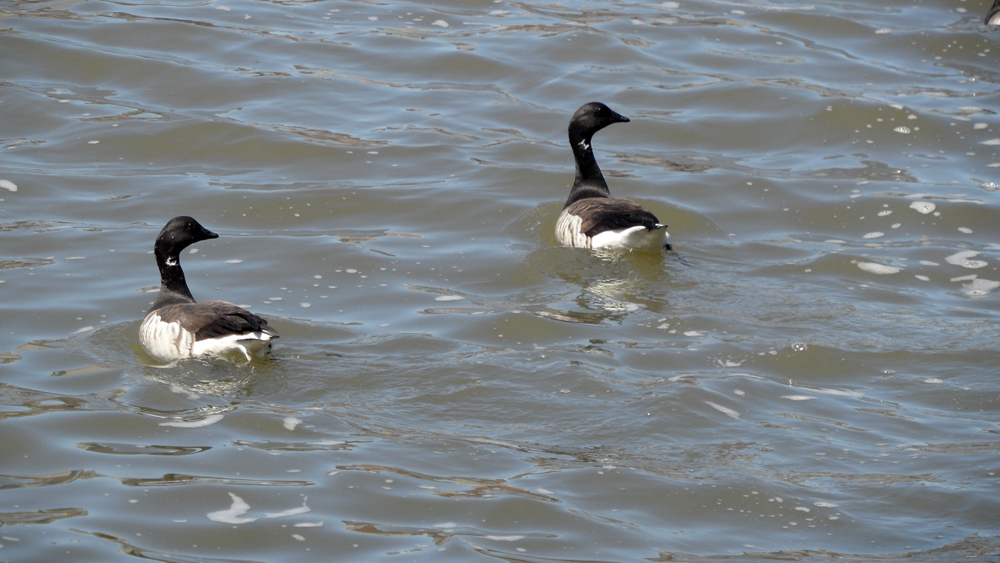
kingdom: Animalia
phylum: Chordata
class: Aves
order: Anseriformes
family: Anatidae
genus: Branta
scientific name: Branta bernicla
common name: Brant goose
